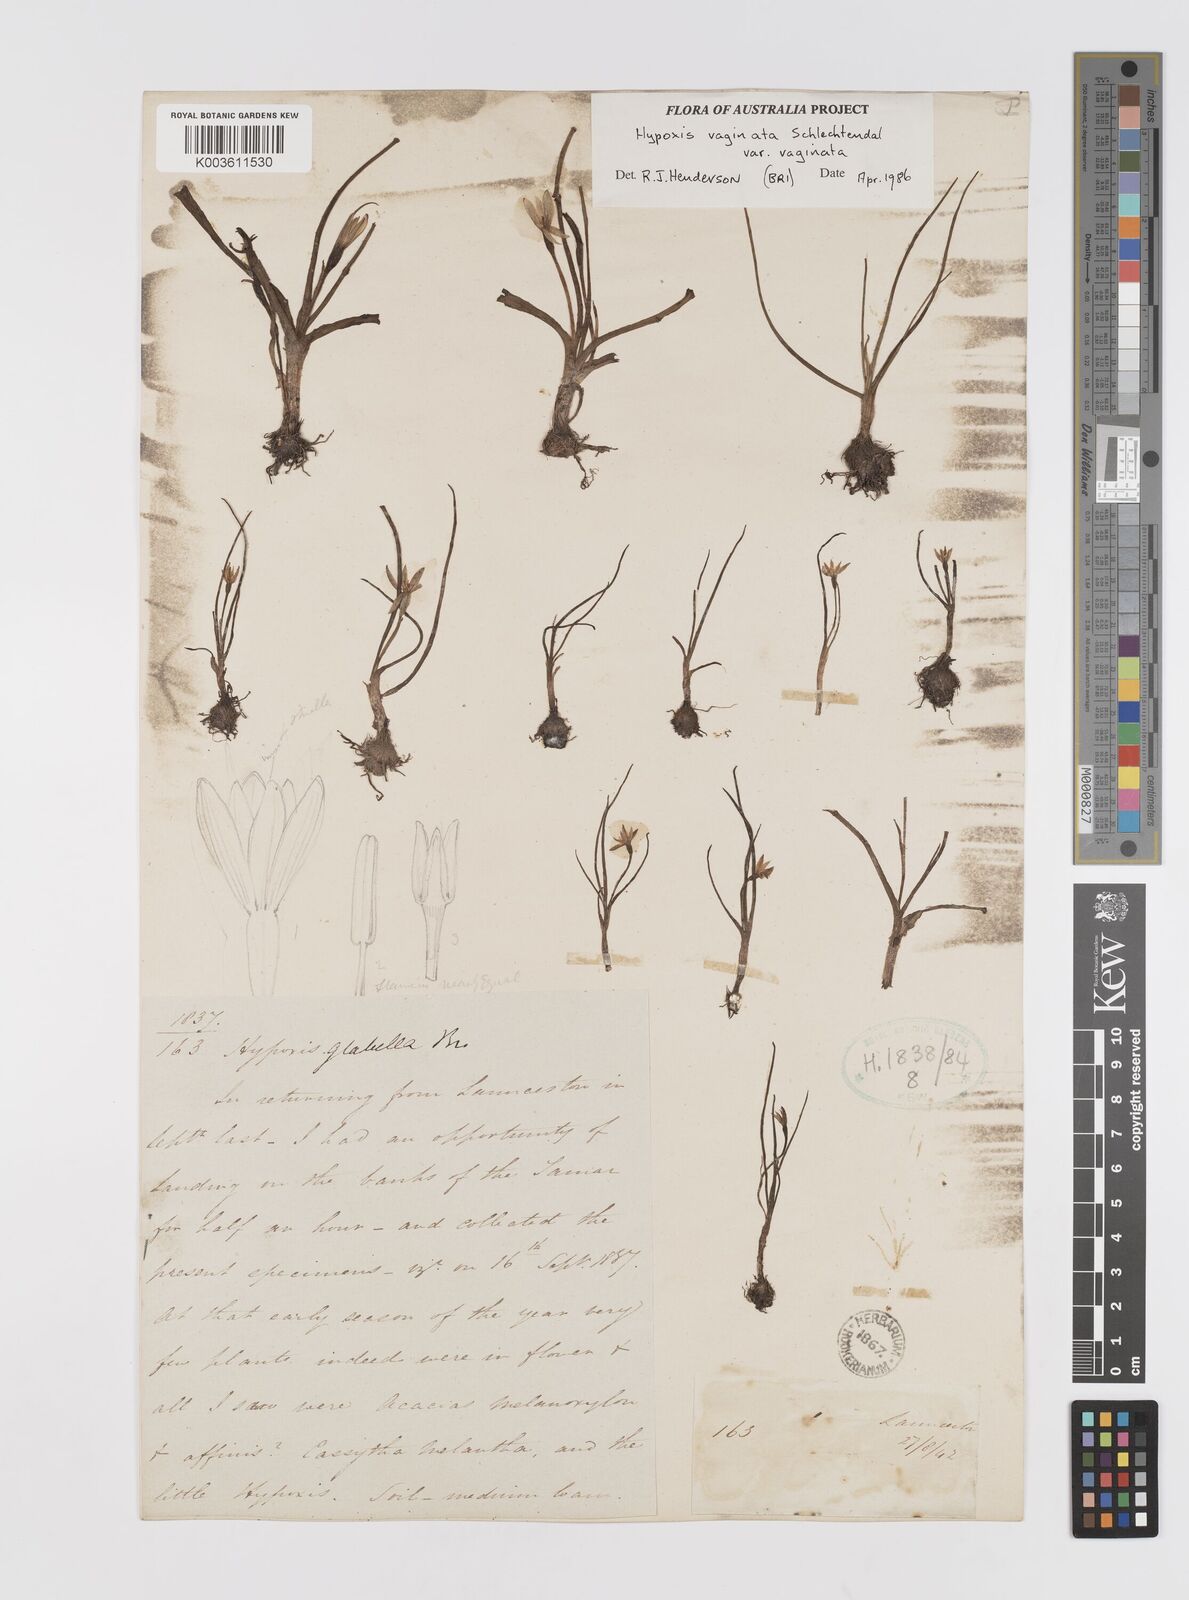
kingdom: Plantae
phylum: Tracheophyta
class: Liliopsida
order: Asparagales
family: Hypoxidaceae
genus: Pauridia
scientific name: Pauridia vaginata
